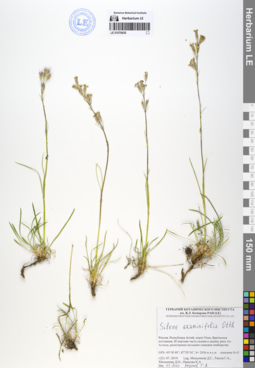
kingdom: Plantae
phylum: Tracheophyta
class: Magnoliopsida
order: Caryophyllales
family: Caryophyllaceae
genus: Silene
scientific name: Silene graminifolia
